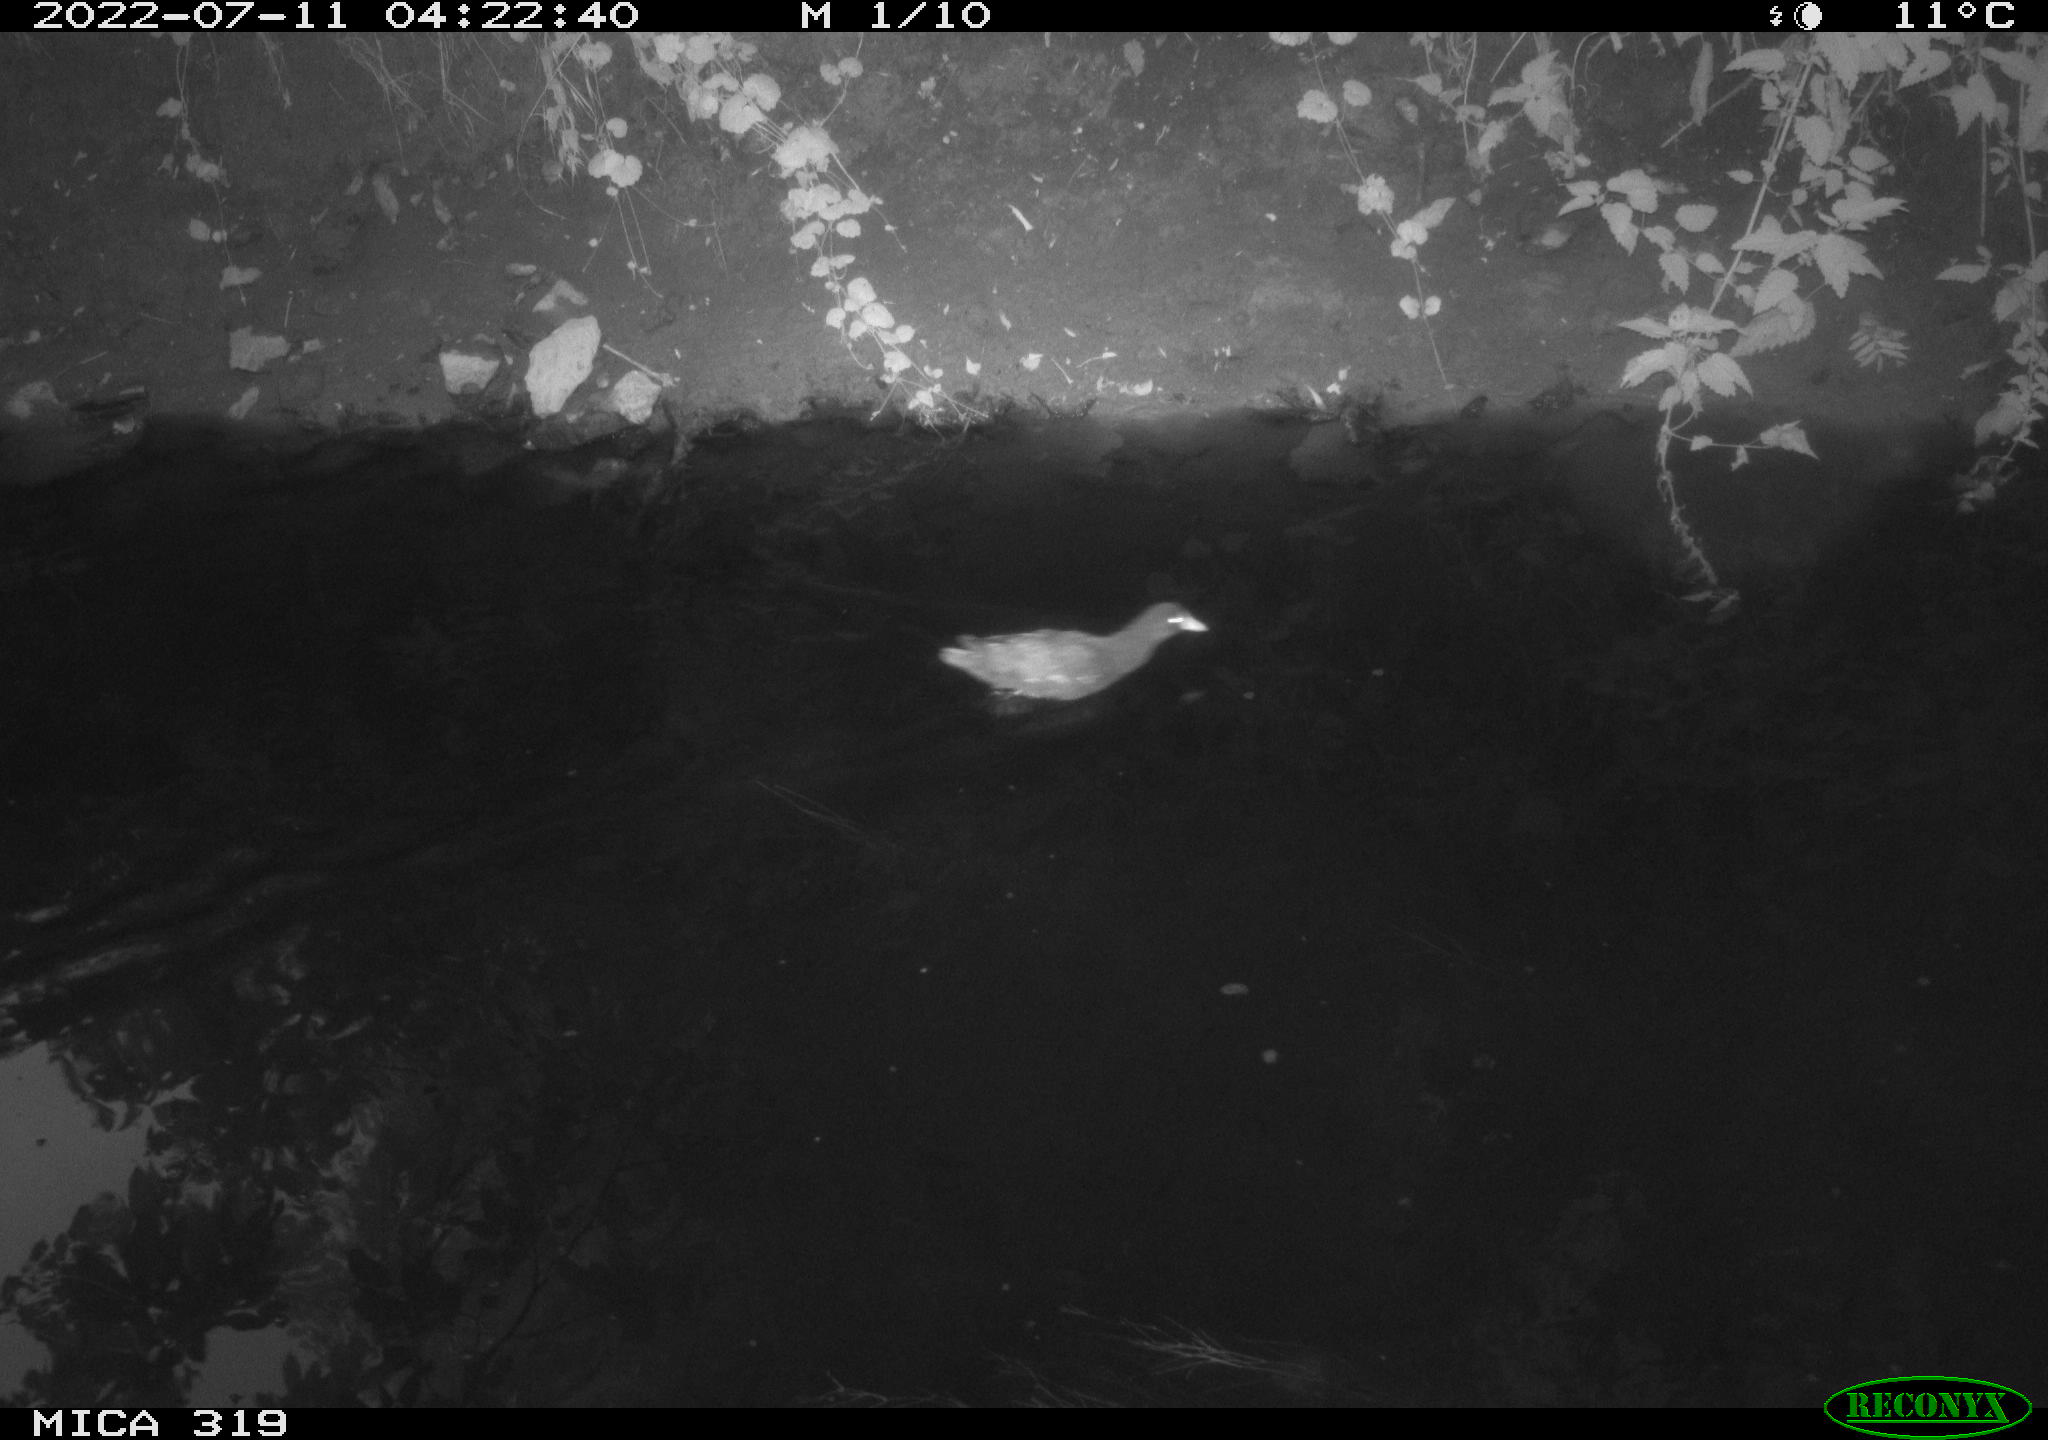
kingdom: Animalia
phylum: Chordata
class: Aves
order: Gruiformes
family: Rallidae
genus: Gallinula
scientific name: Gallinula chloropus
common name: Common moorhen
